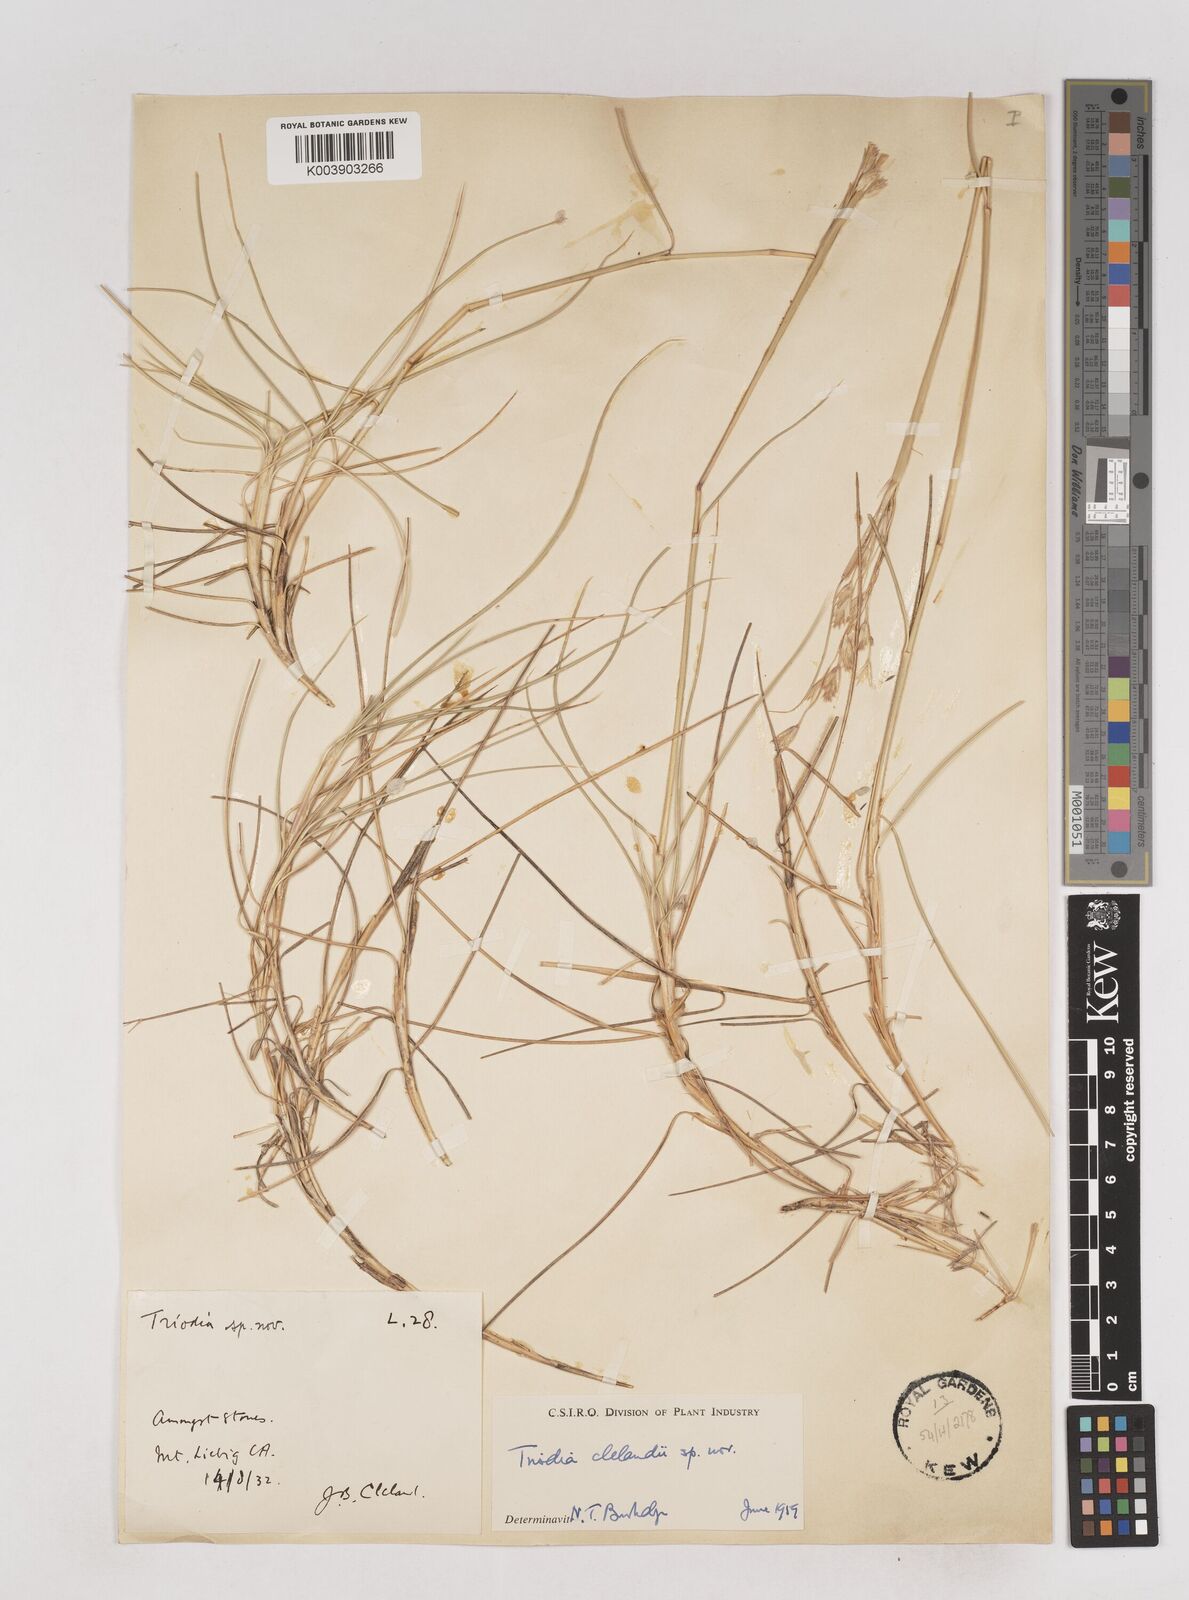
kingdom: Plantae
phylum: Tracheophyta
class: Liliopsida
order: Poales
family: Poaceae
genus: Triodia
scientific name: Triodia brizoides
